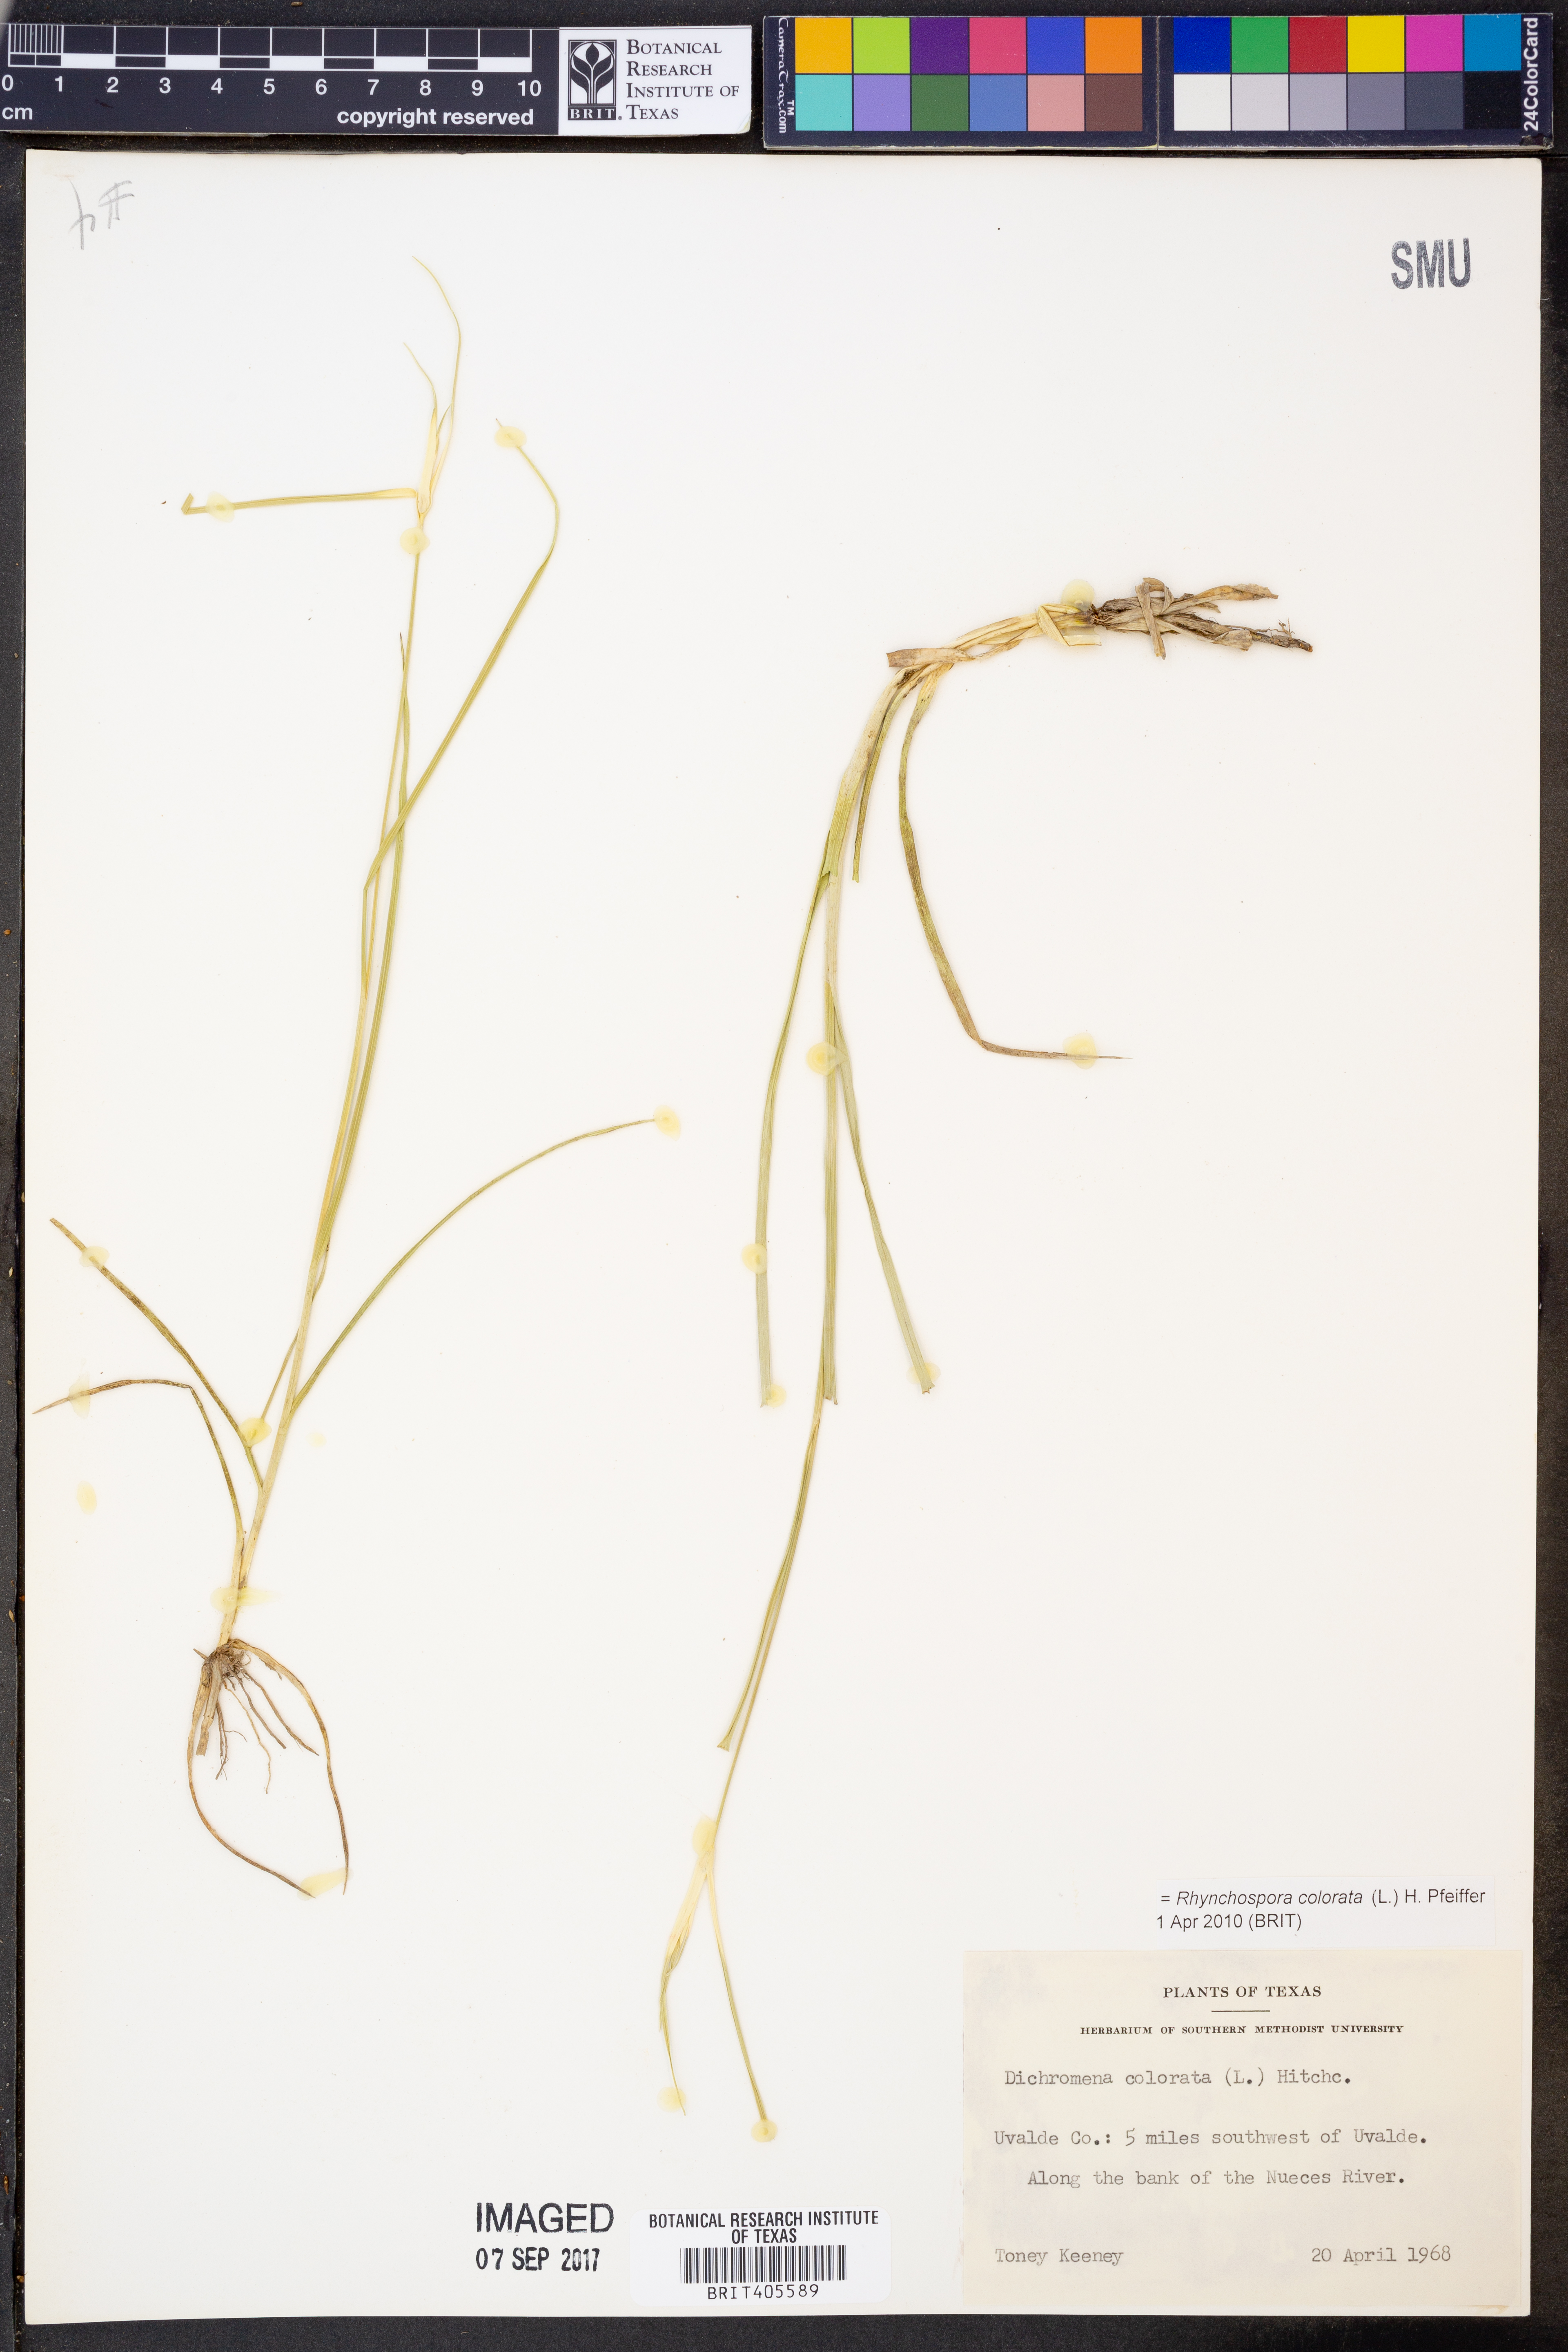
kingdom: Plantae
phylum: Tracheophyta
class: Liliopsida
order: Poales
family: Cyperaceae
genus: Rhynchospora
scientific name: Rhynchospora colorata
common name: Star sedge
